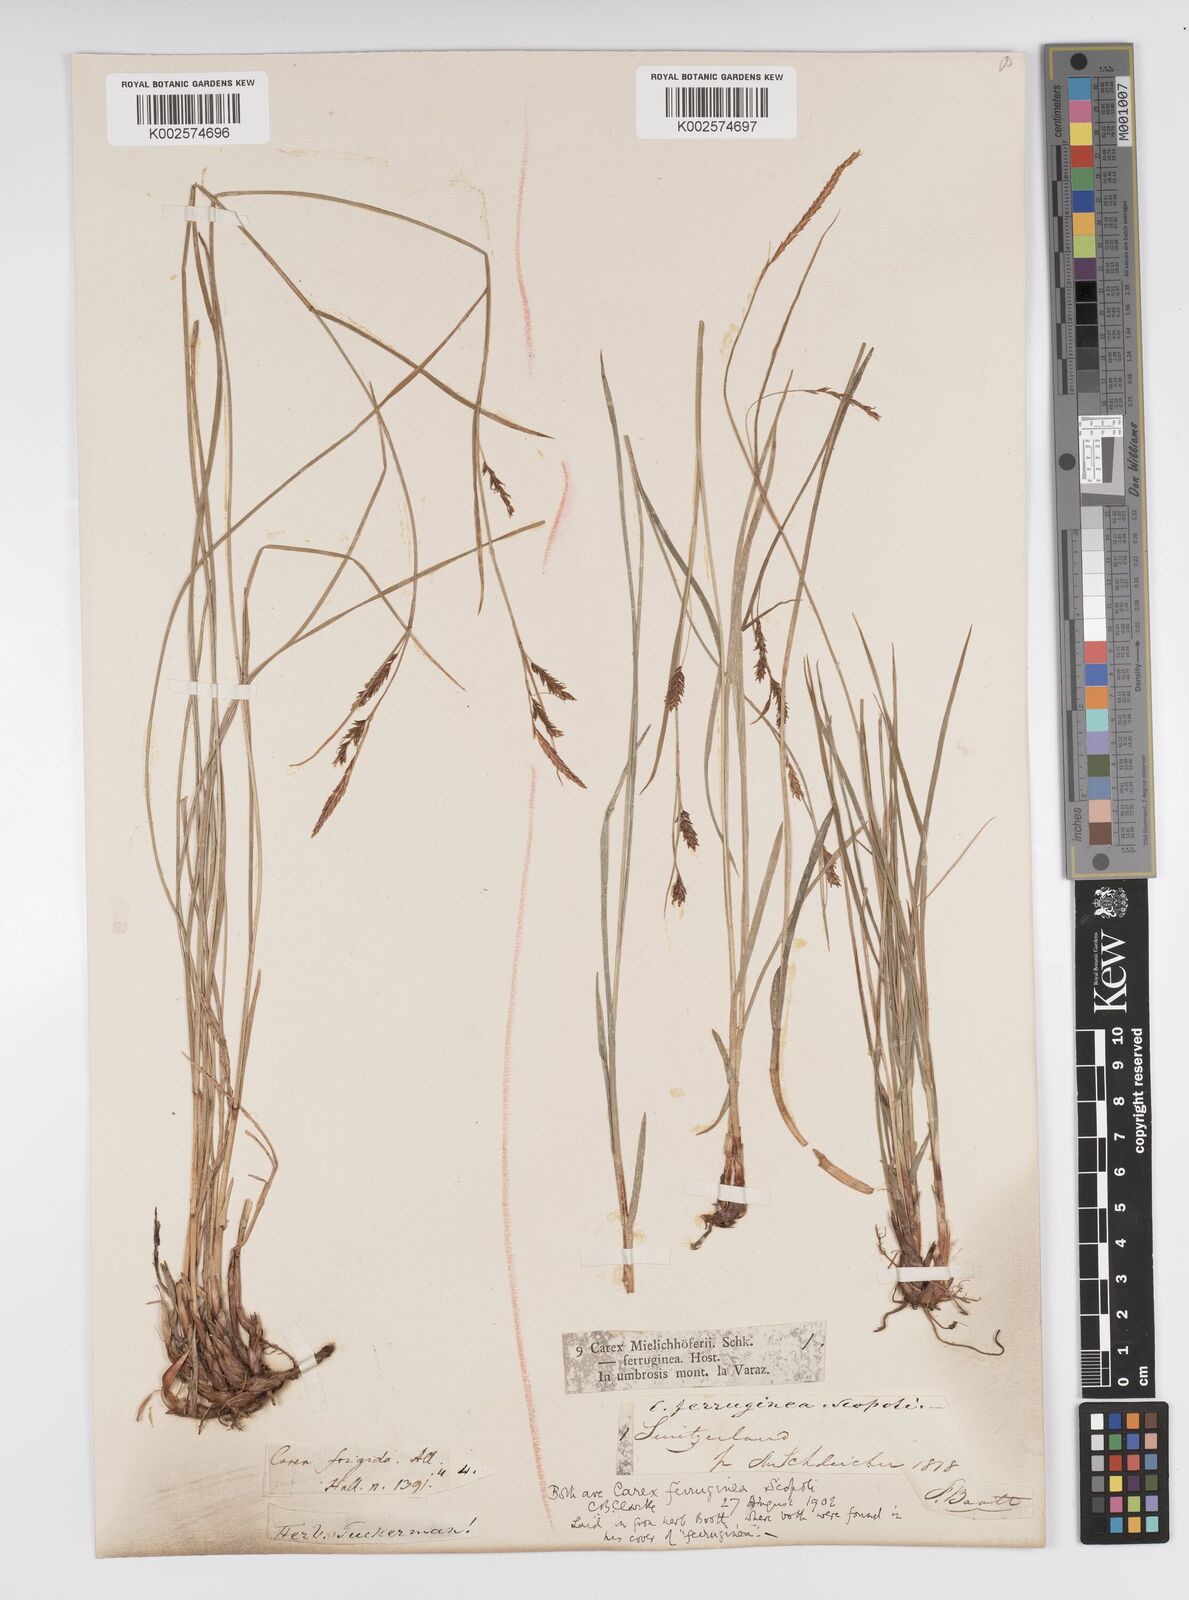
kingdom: Plantae
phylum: Tracheophyta
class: Liliopsida
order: Poales
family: Cyperaceae
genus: Carex
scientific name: Carex ferruginea
